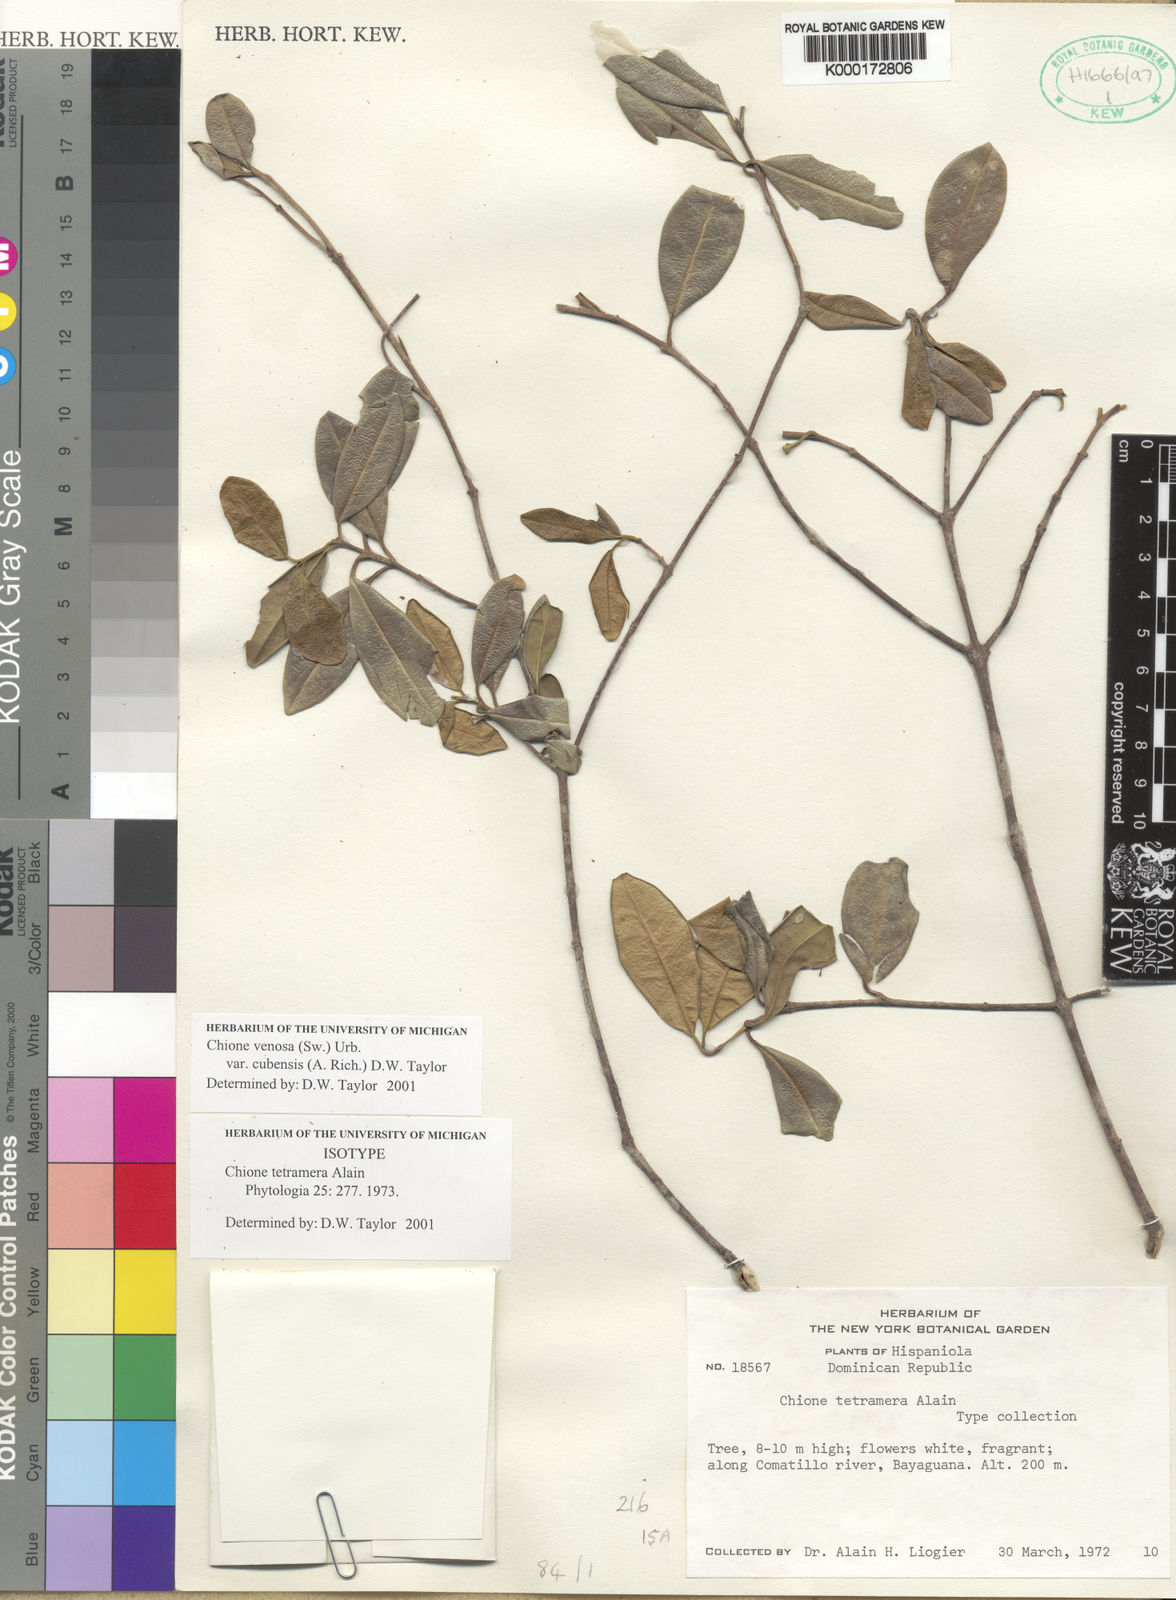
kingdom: Plantae
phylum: Tracheophyta
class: Magnoliopsida
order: Gentianales
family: Rubiaceae
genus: Chione
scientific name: Chione venosa
